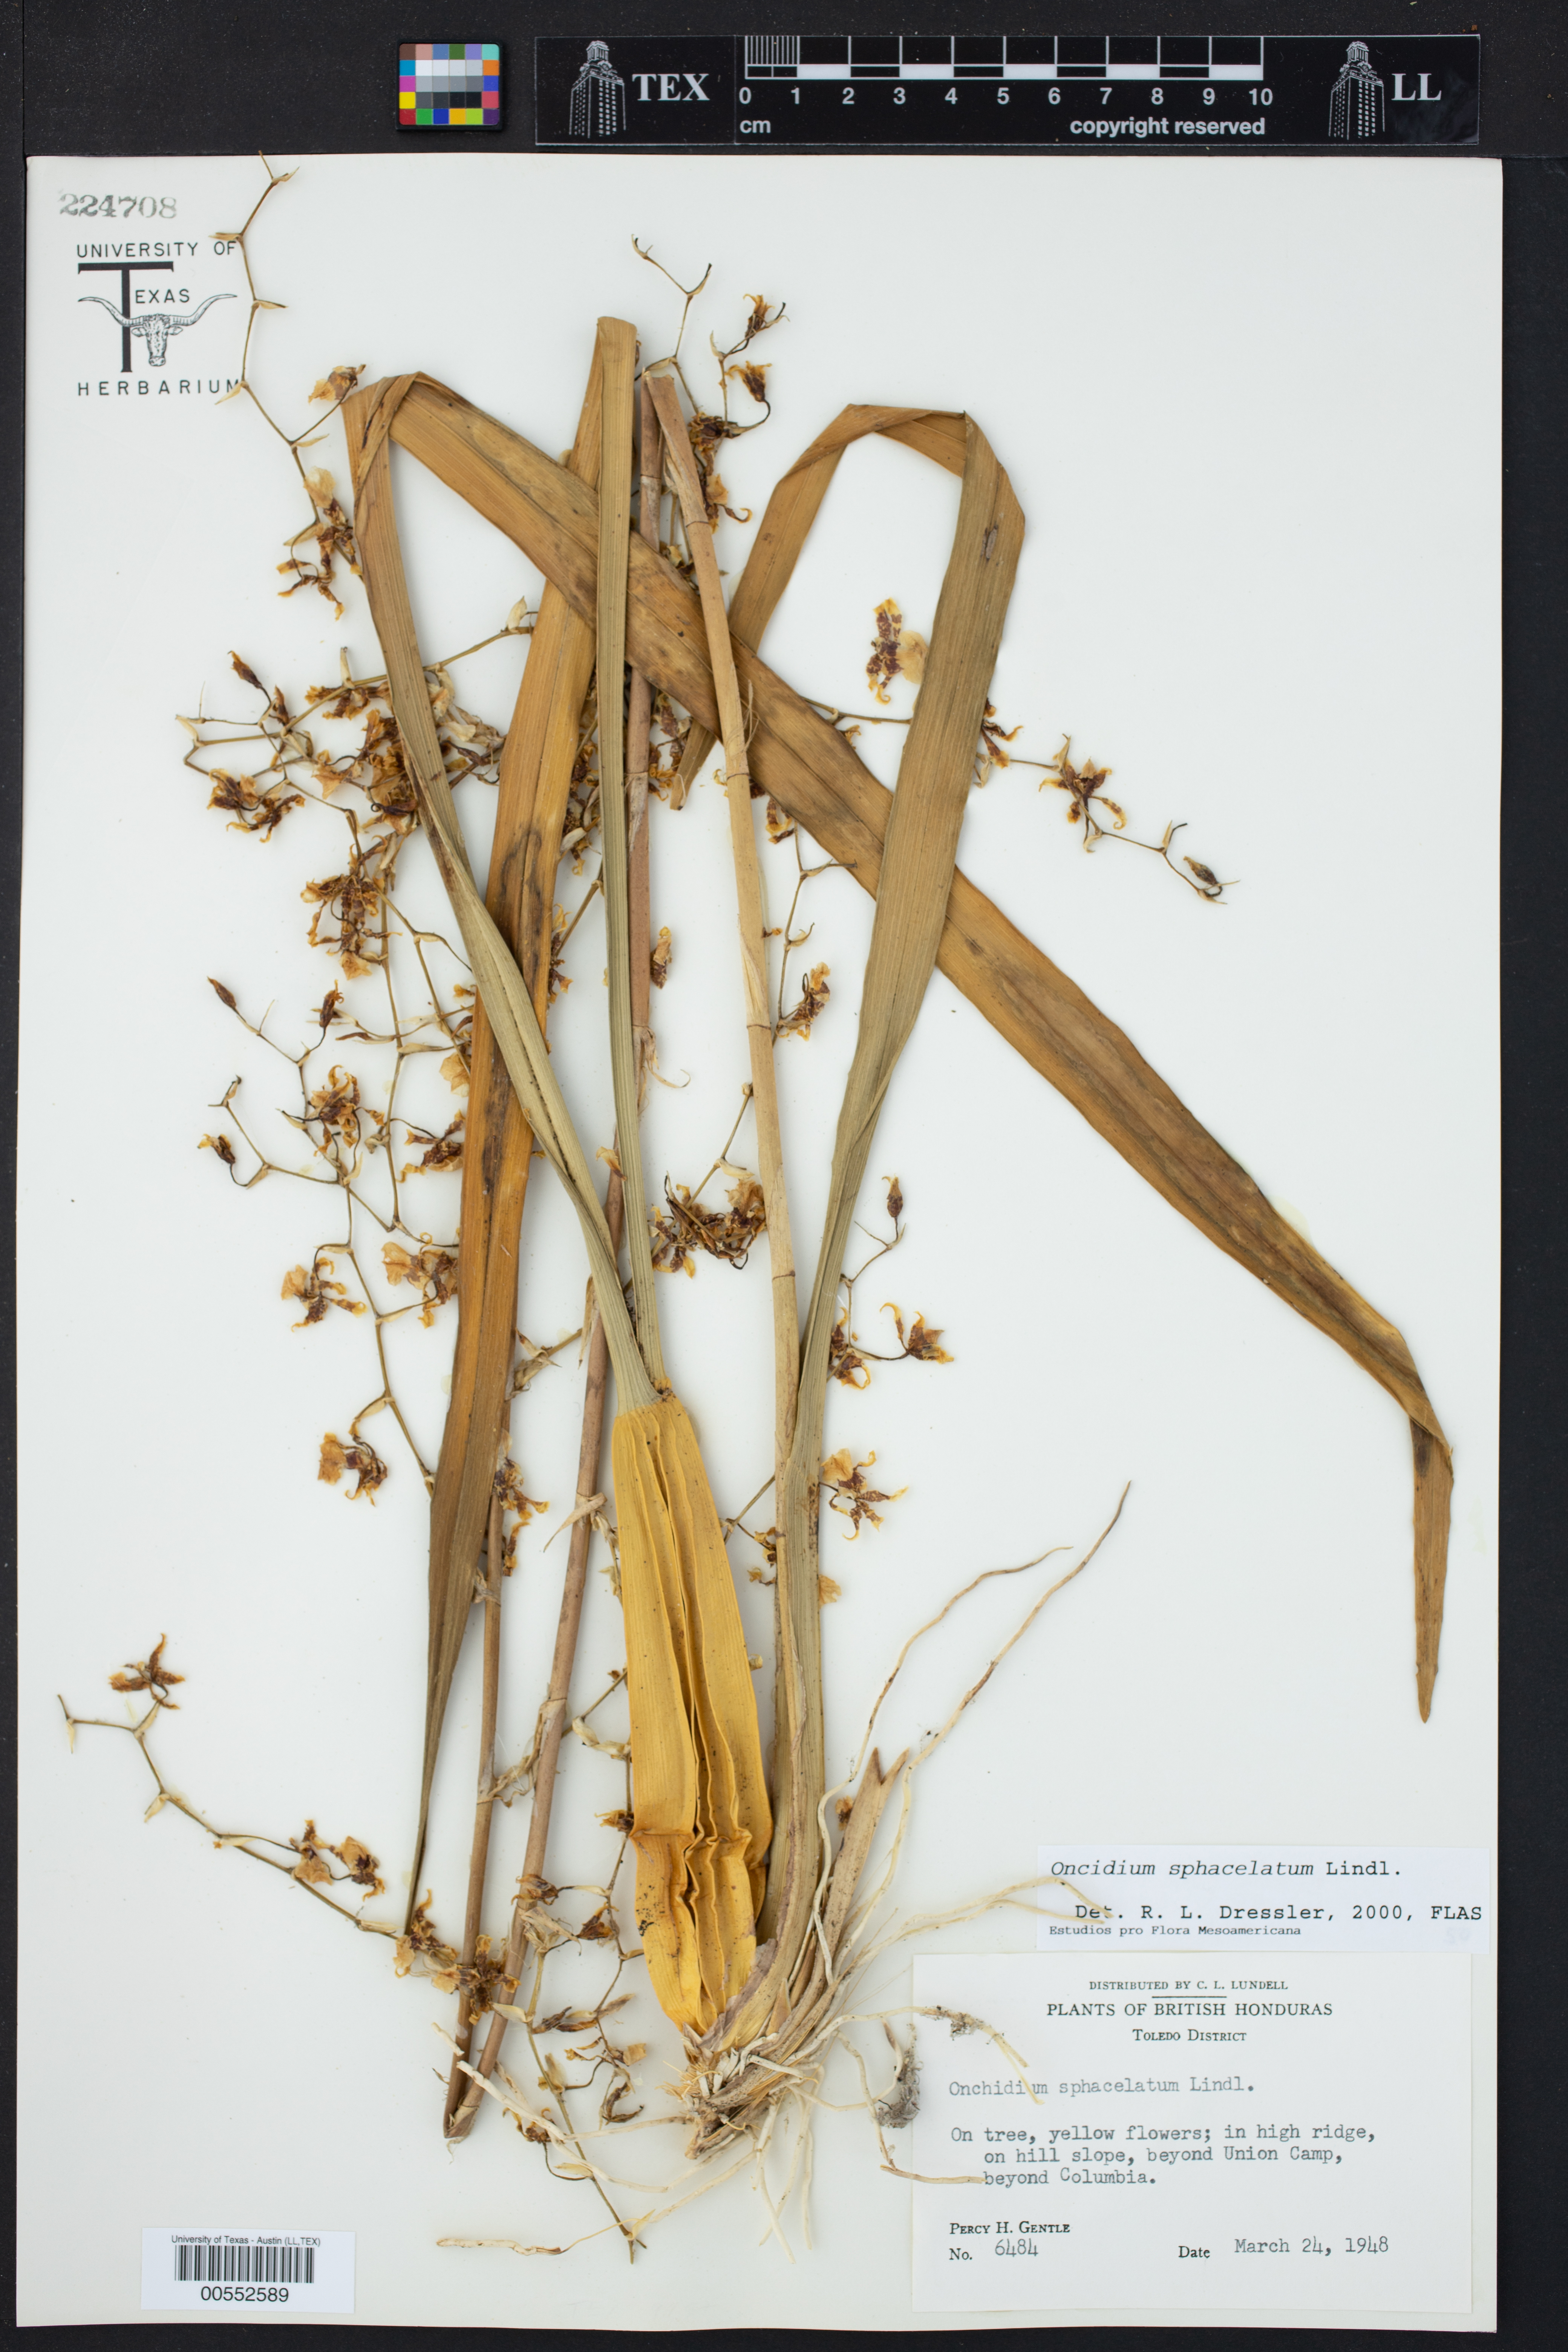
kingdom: Plantae
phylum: Tracheophyta
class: Liliopsida
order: Asparagales
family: Orchidaceae
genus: Oncidium
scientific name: Oncidium sphacelatum
